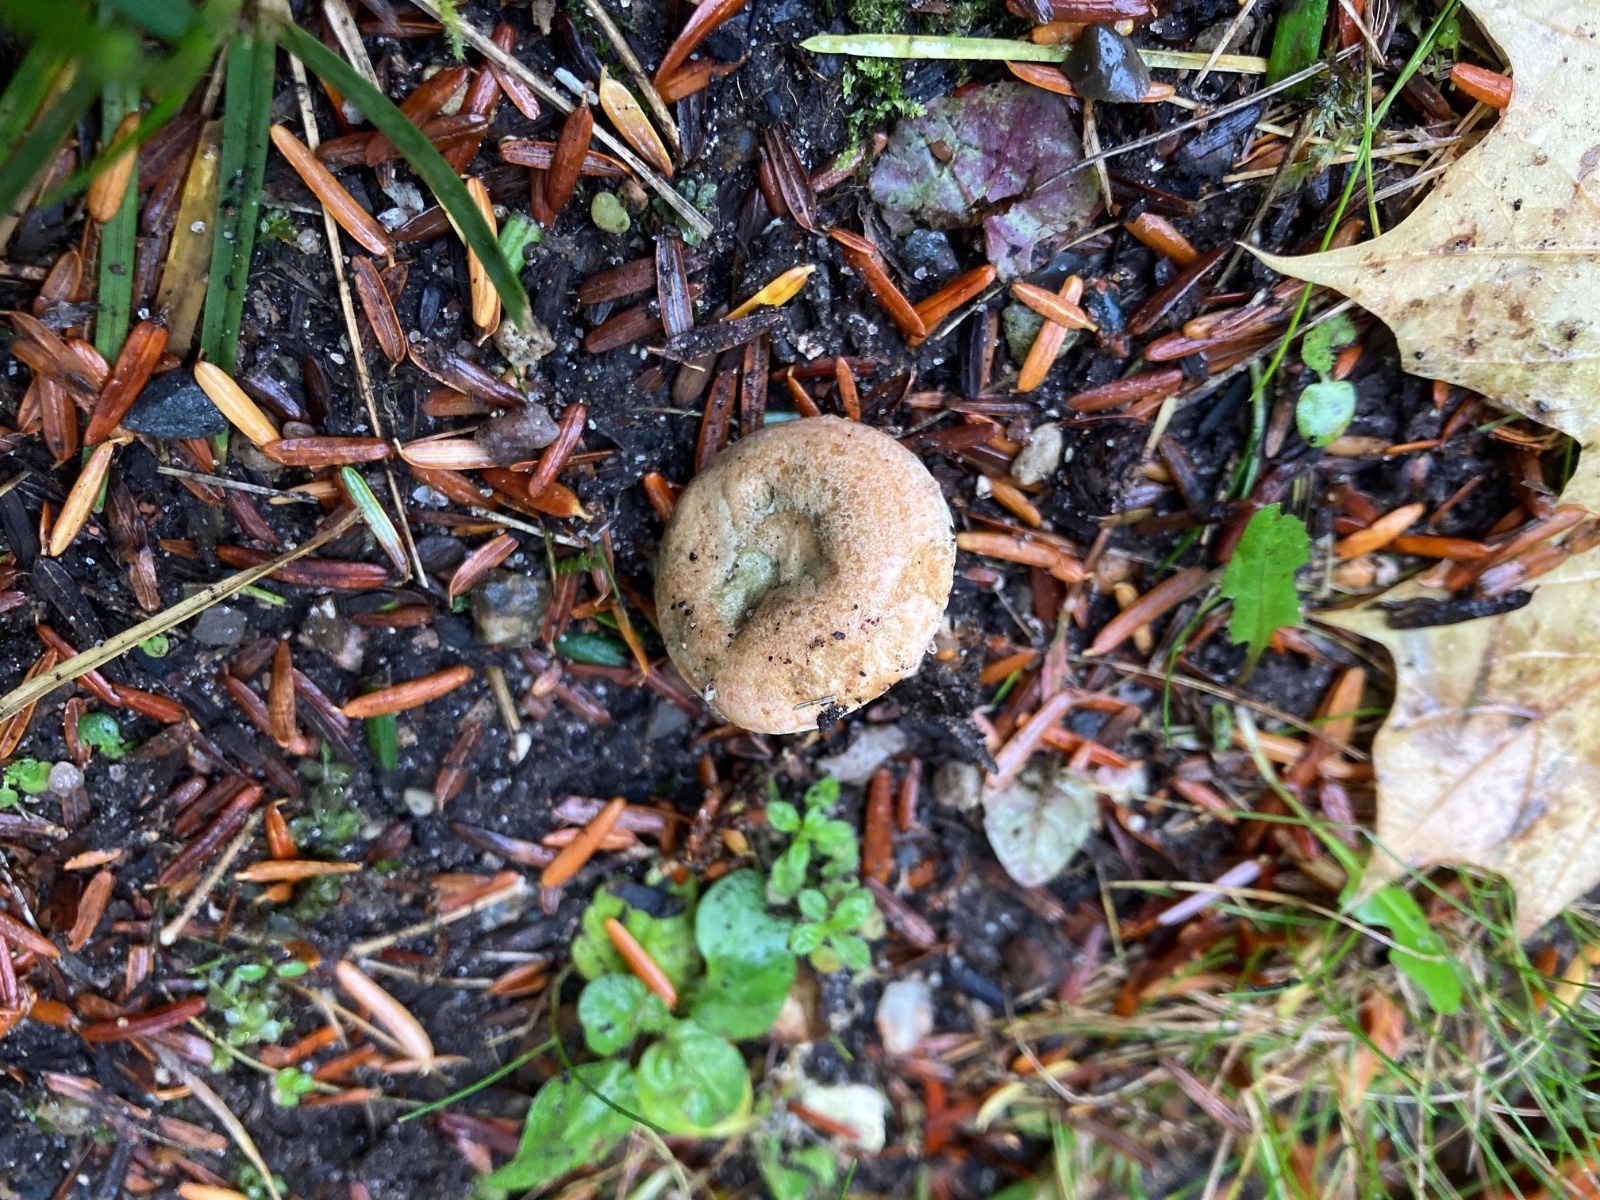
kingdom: Fungi
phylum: Basidiomycota
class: Agaricomycetes
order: Russulales
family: Russulaceae
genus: Lactarius
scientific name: Lactarius deterrimus
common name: gran-mælkehat
